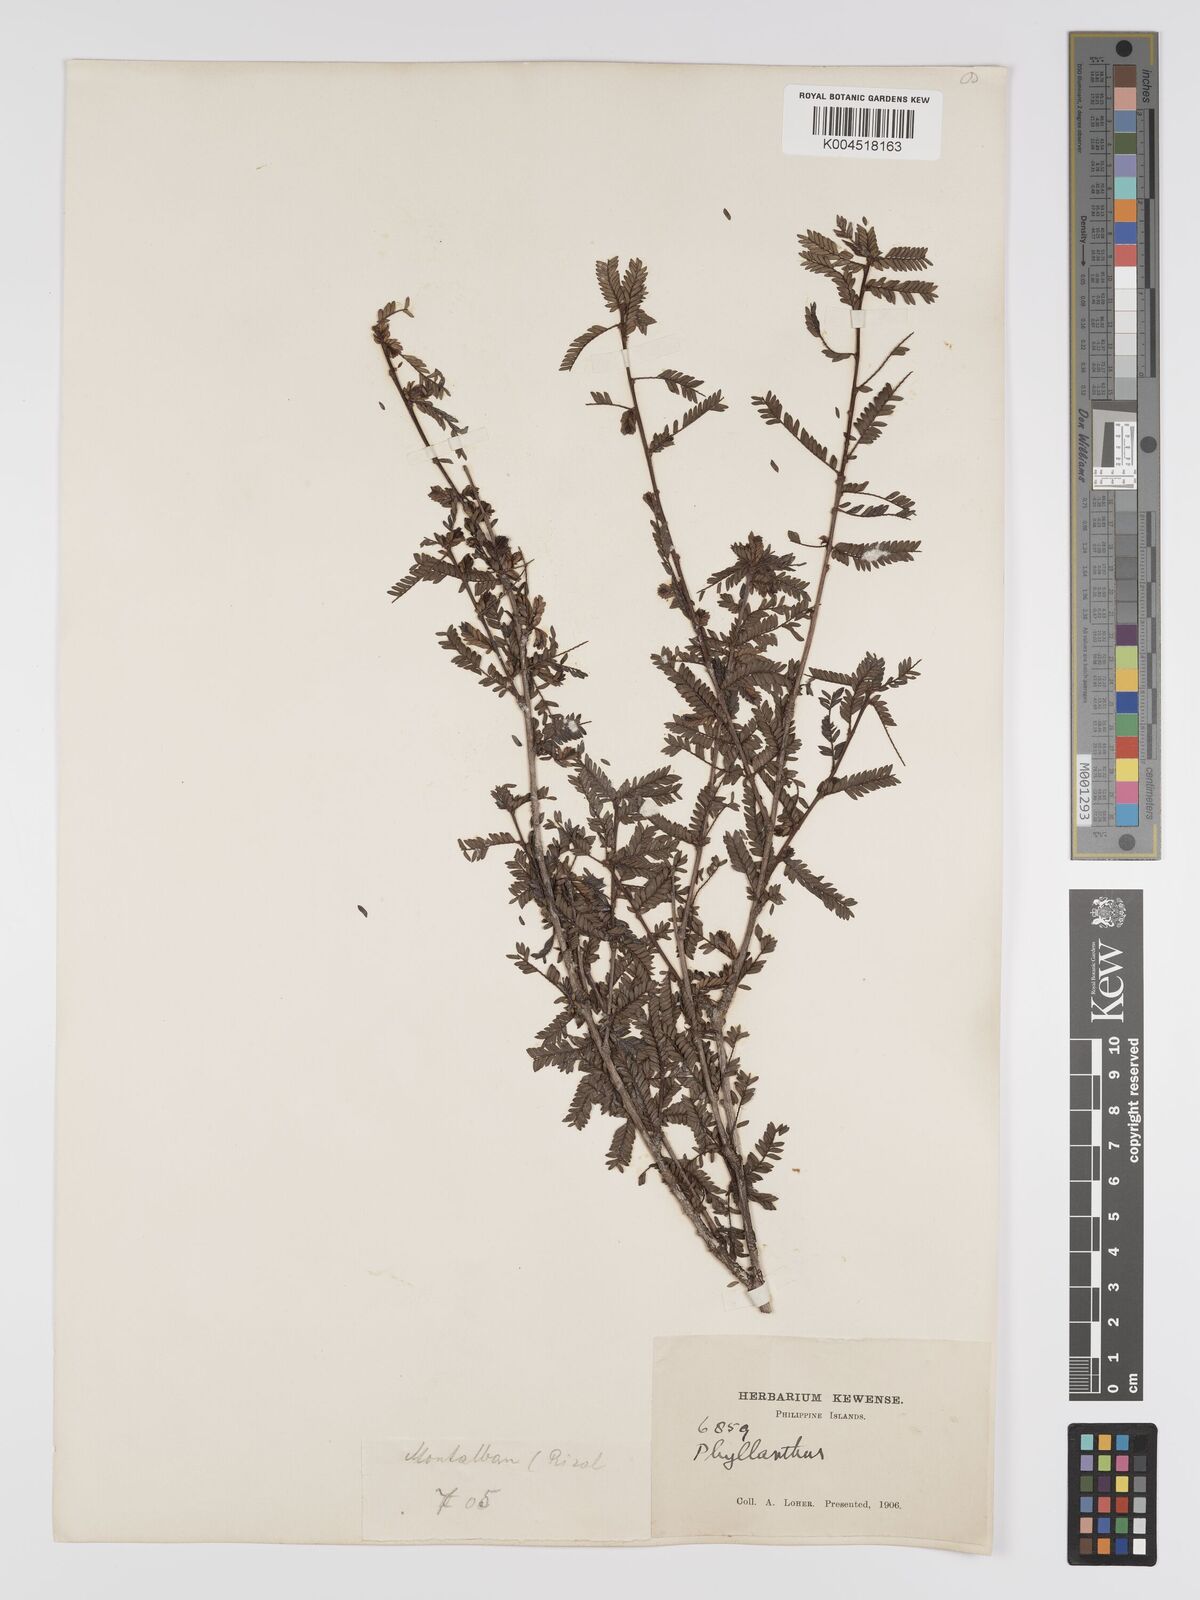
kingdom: Plantae
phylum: Tracheophyta
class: Magnoliopsida
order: Malpighiales
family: Phyllanthaceae
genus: Phyllanthus
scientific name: Phyllanthus curranii
